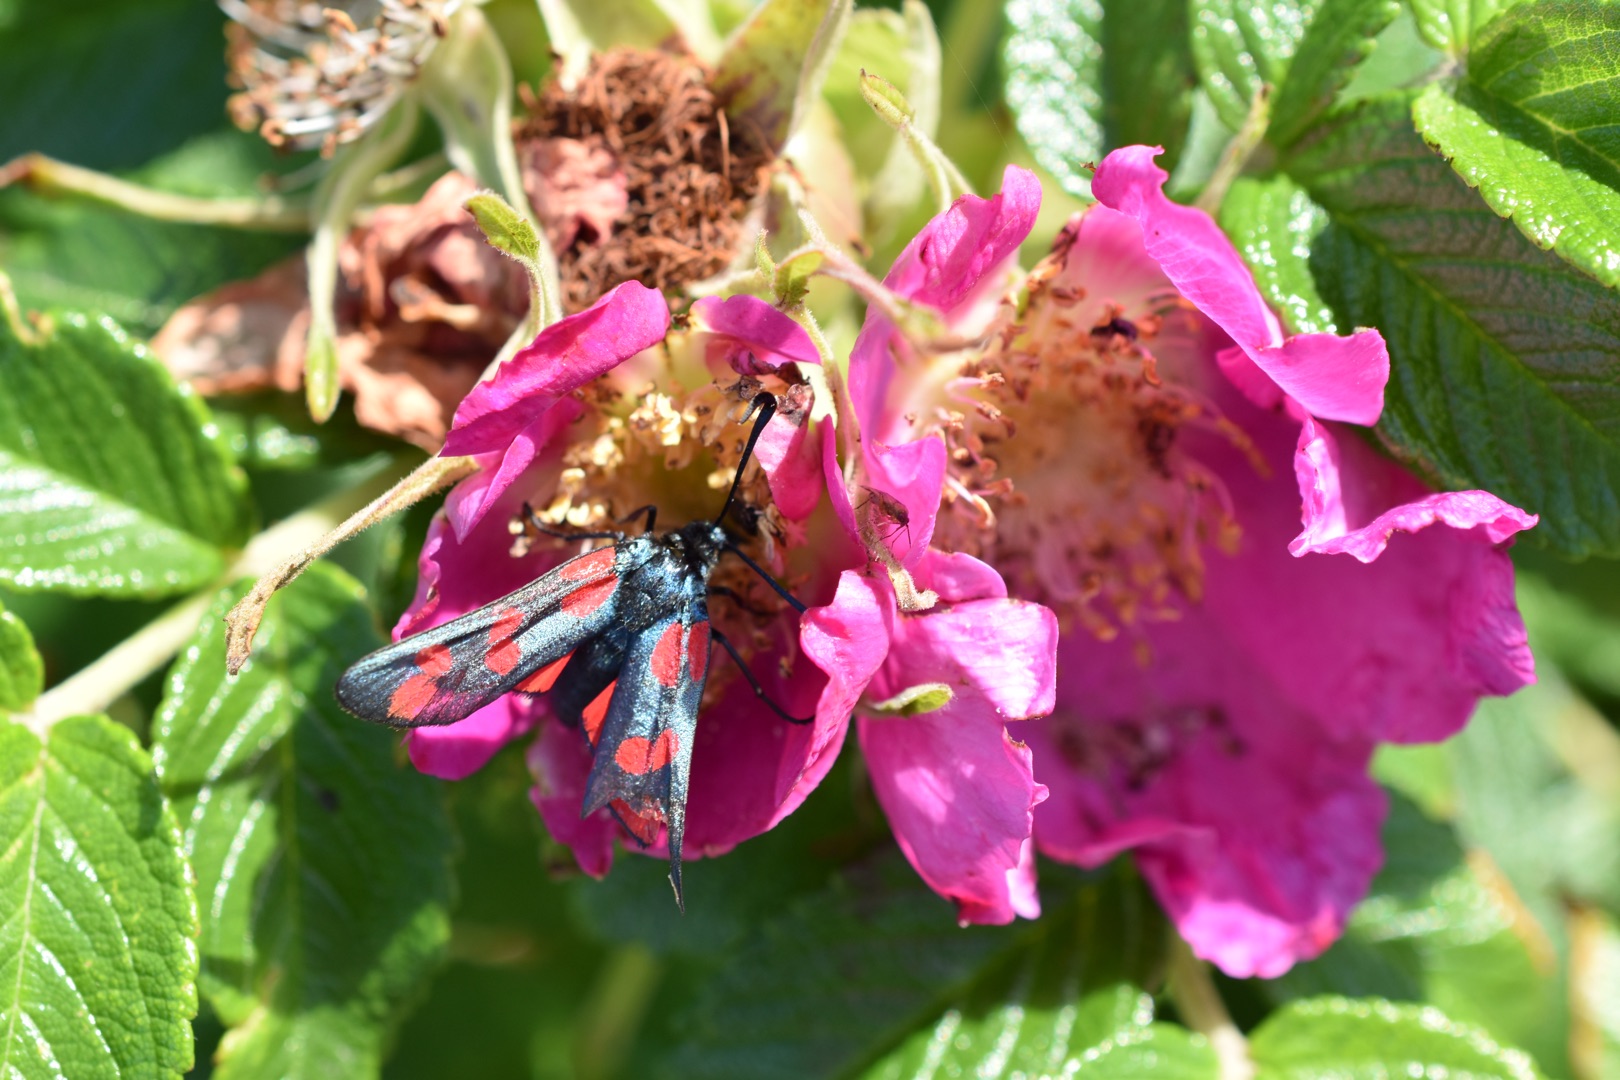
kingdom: Animalia
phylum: Arthropoda
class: Insecta
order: Lepidoptera
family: Zygaenidae
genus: Zygaena
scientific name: Zygaena filipendulae
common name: Seksplettet køllesværmer
